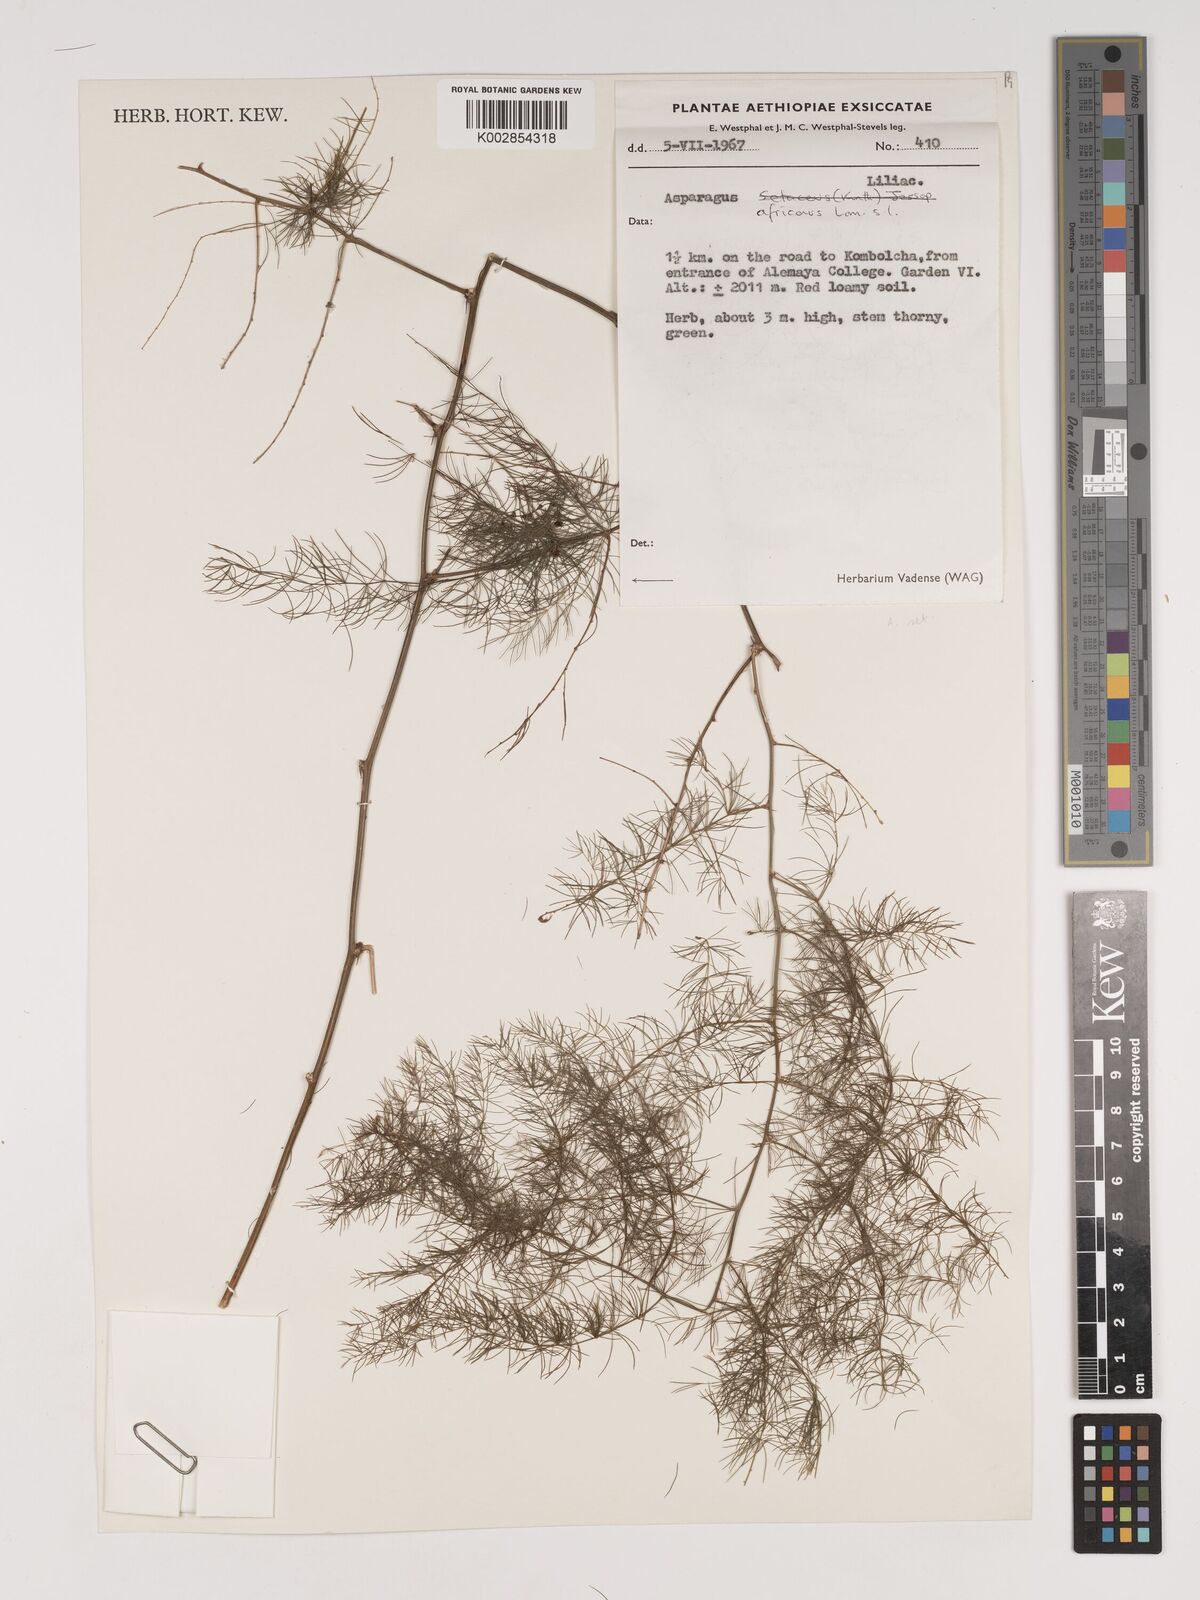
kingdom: Plantae
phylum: Tracheophyta
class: Liliopsida
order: Asparagales
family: Asparagaceae
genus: Asparagus
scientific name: Asparagus africanus
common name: Asparagus-fern
